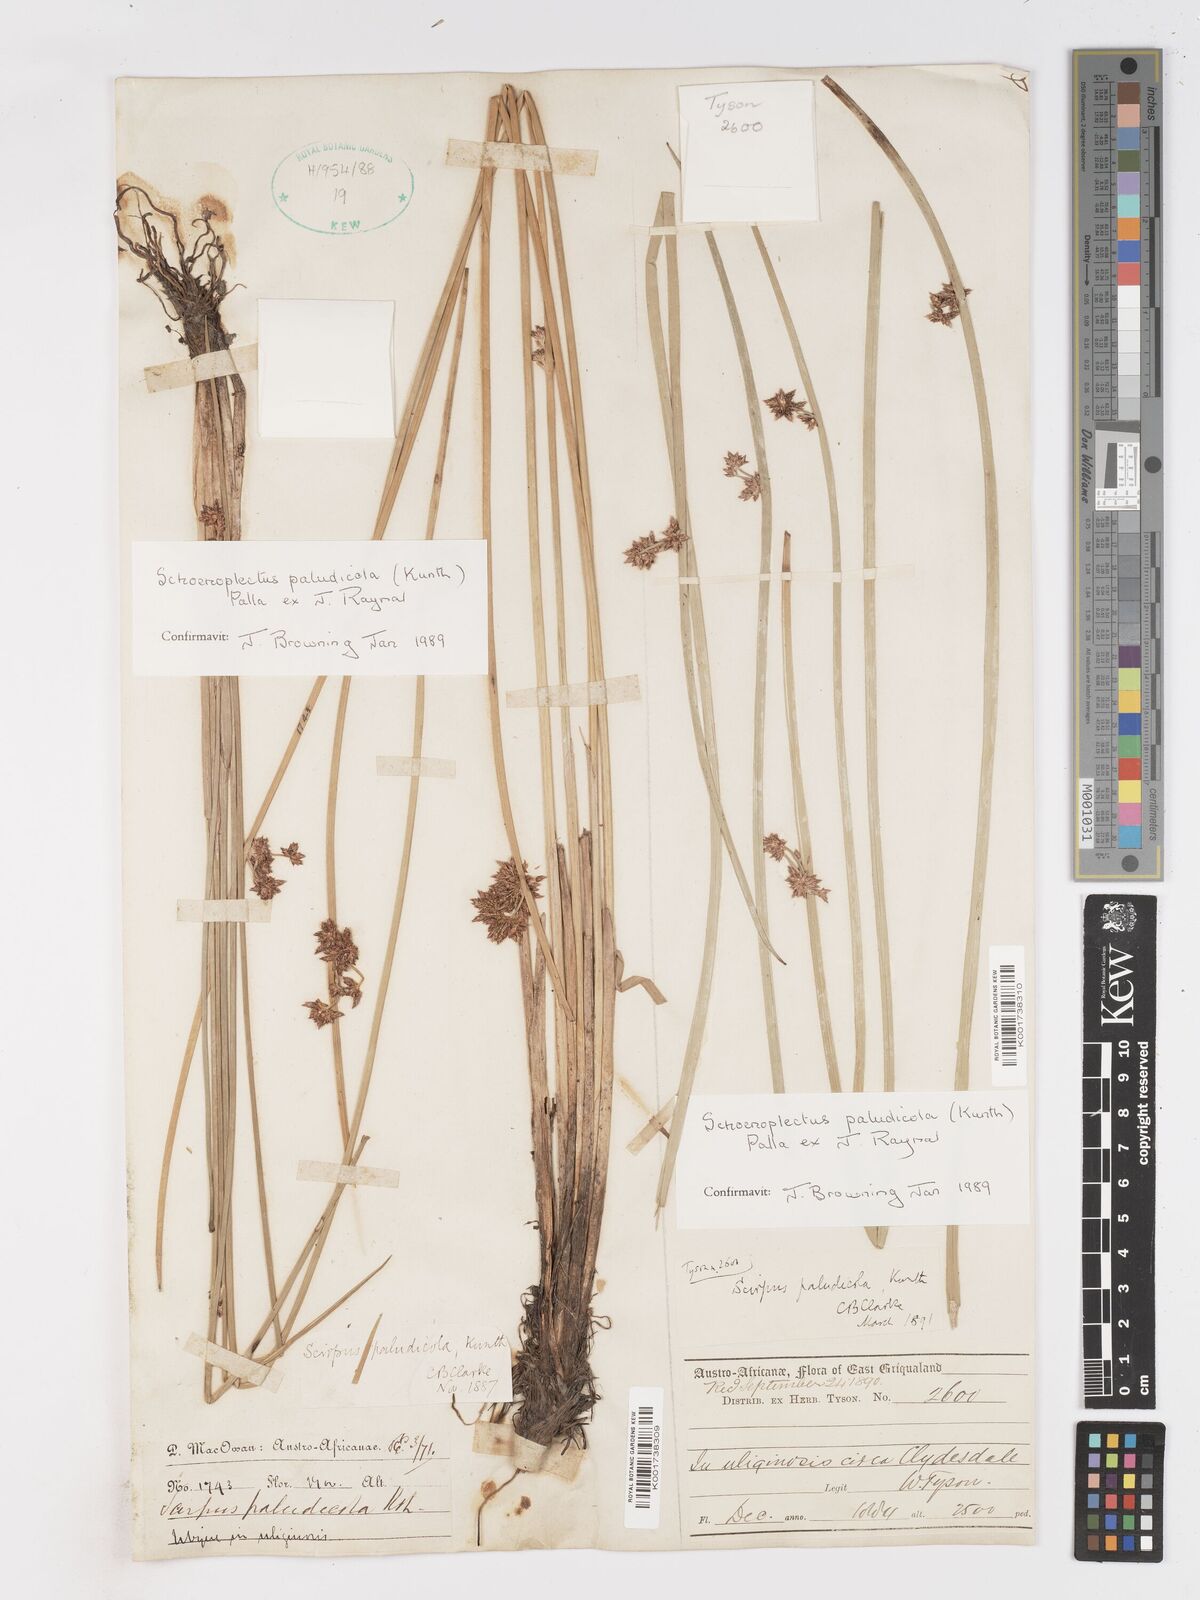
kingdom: Plantae
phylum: Tracheophyta
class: Liliopsida
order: Poales
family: Cyperaceae
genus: Schoenoplectiella
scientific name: Schoenoplectiella paludicola
